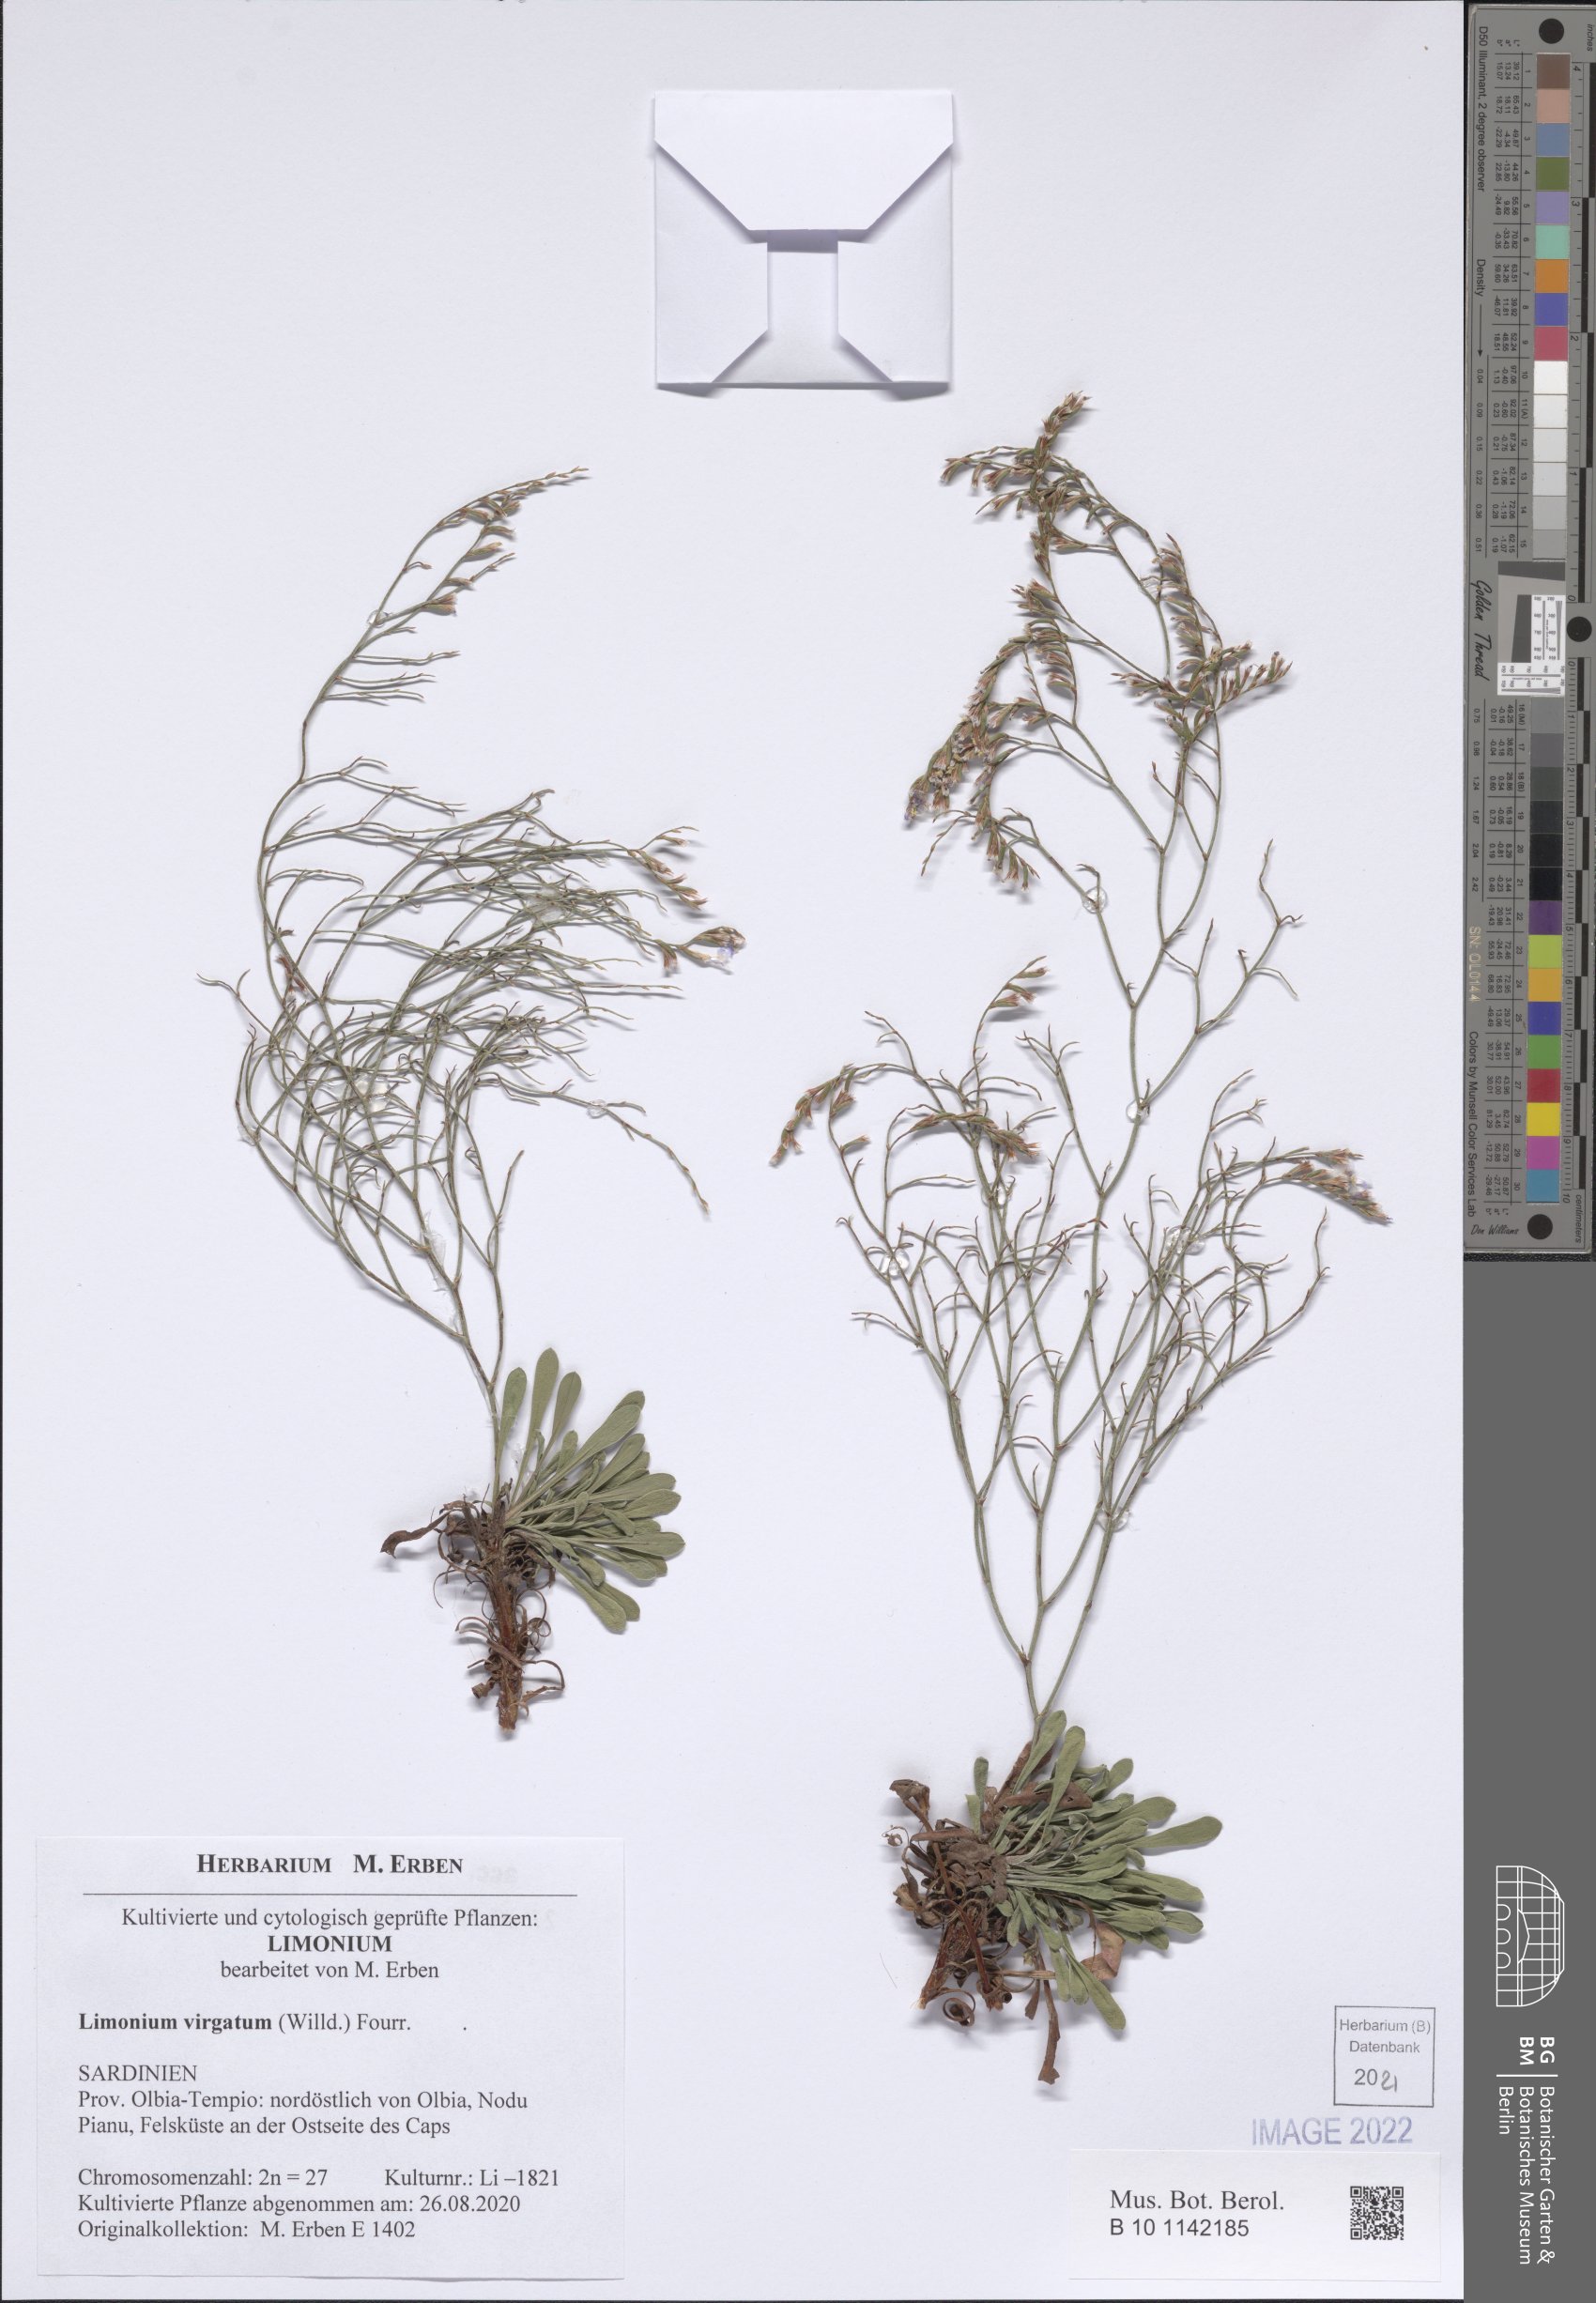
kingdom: Plantae
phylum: Tracheophyta
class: Magnoliopsida
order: Caryophyllales
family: Plumbaginaceae
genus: Limonium
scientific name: Limonium virgatum
